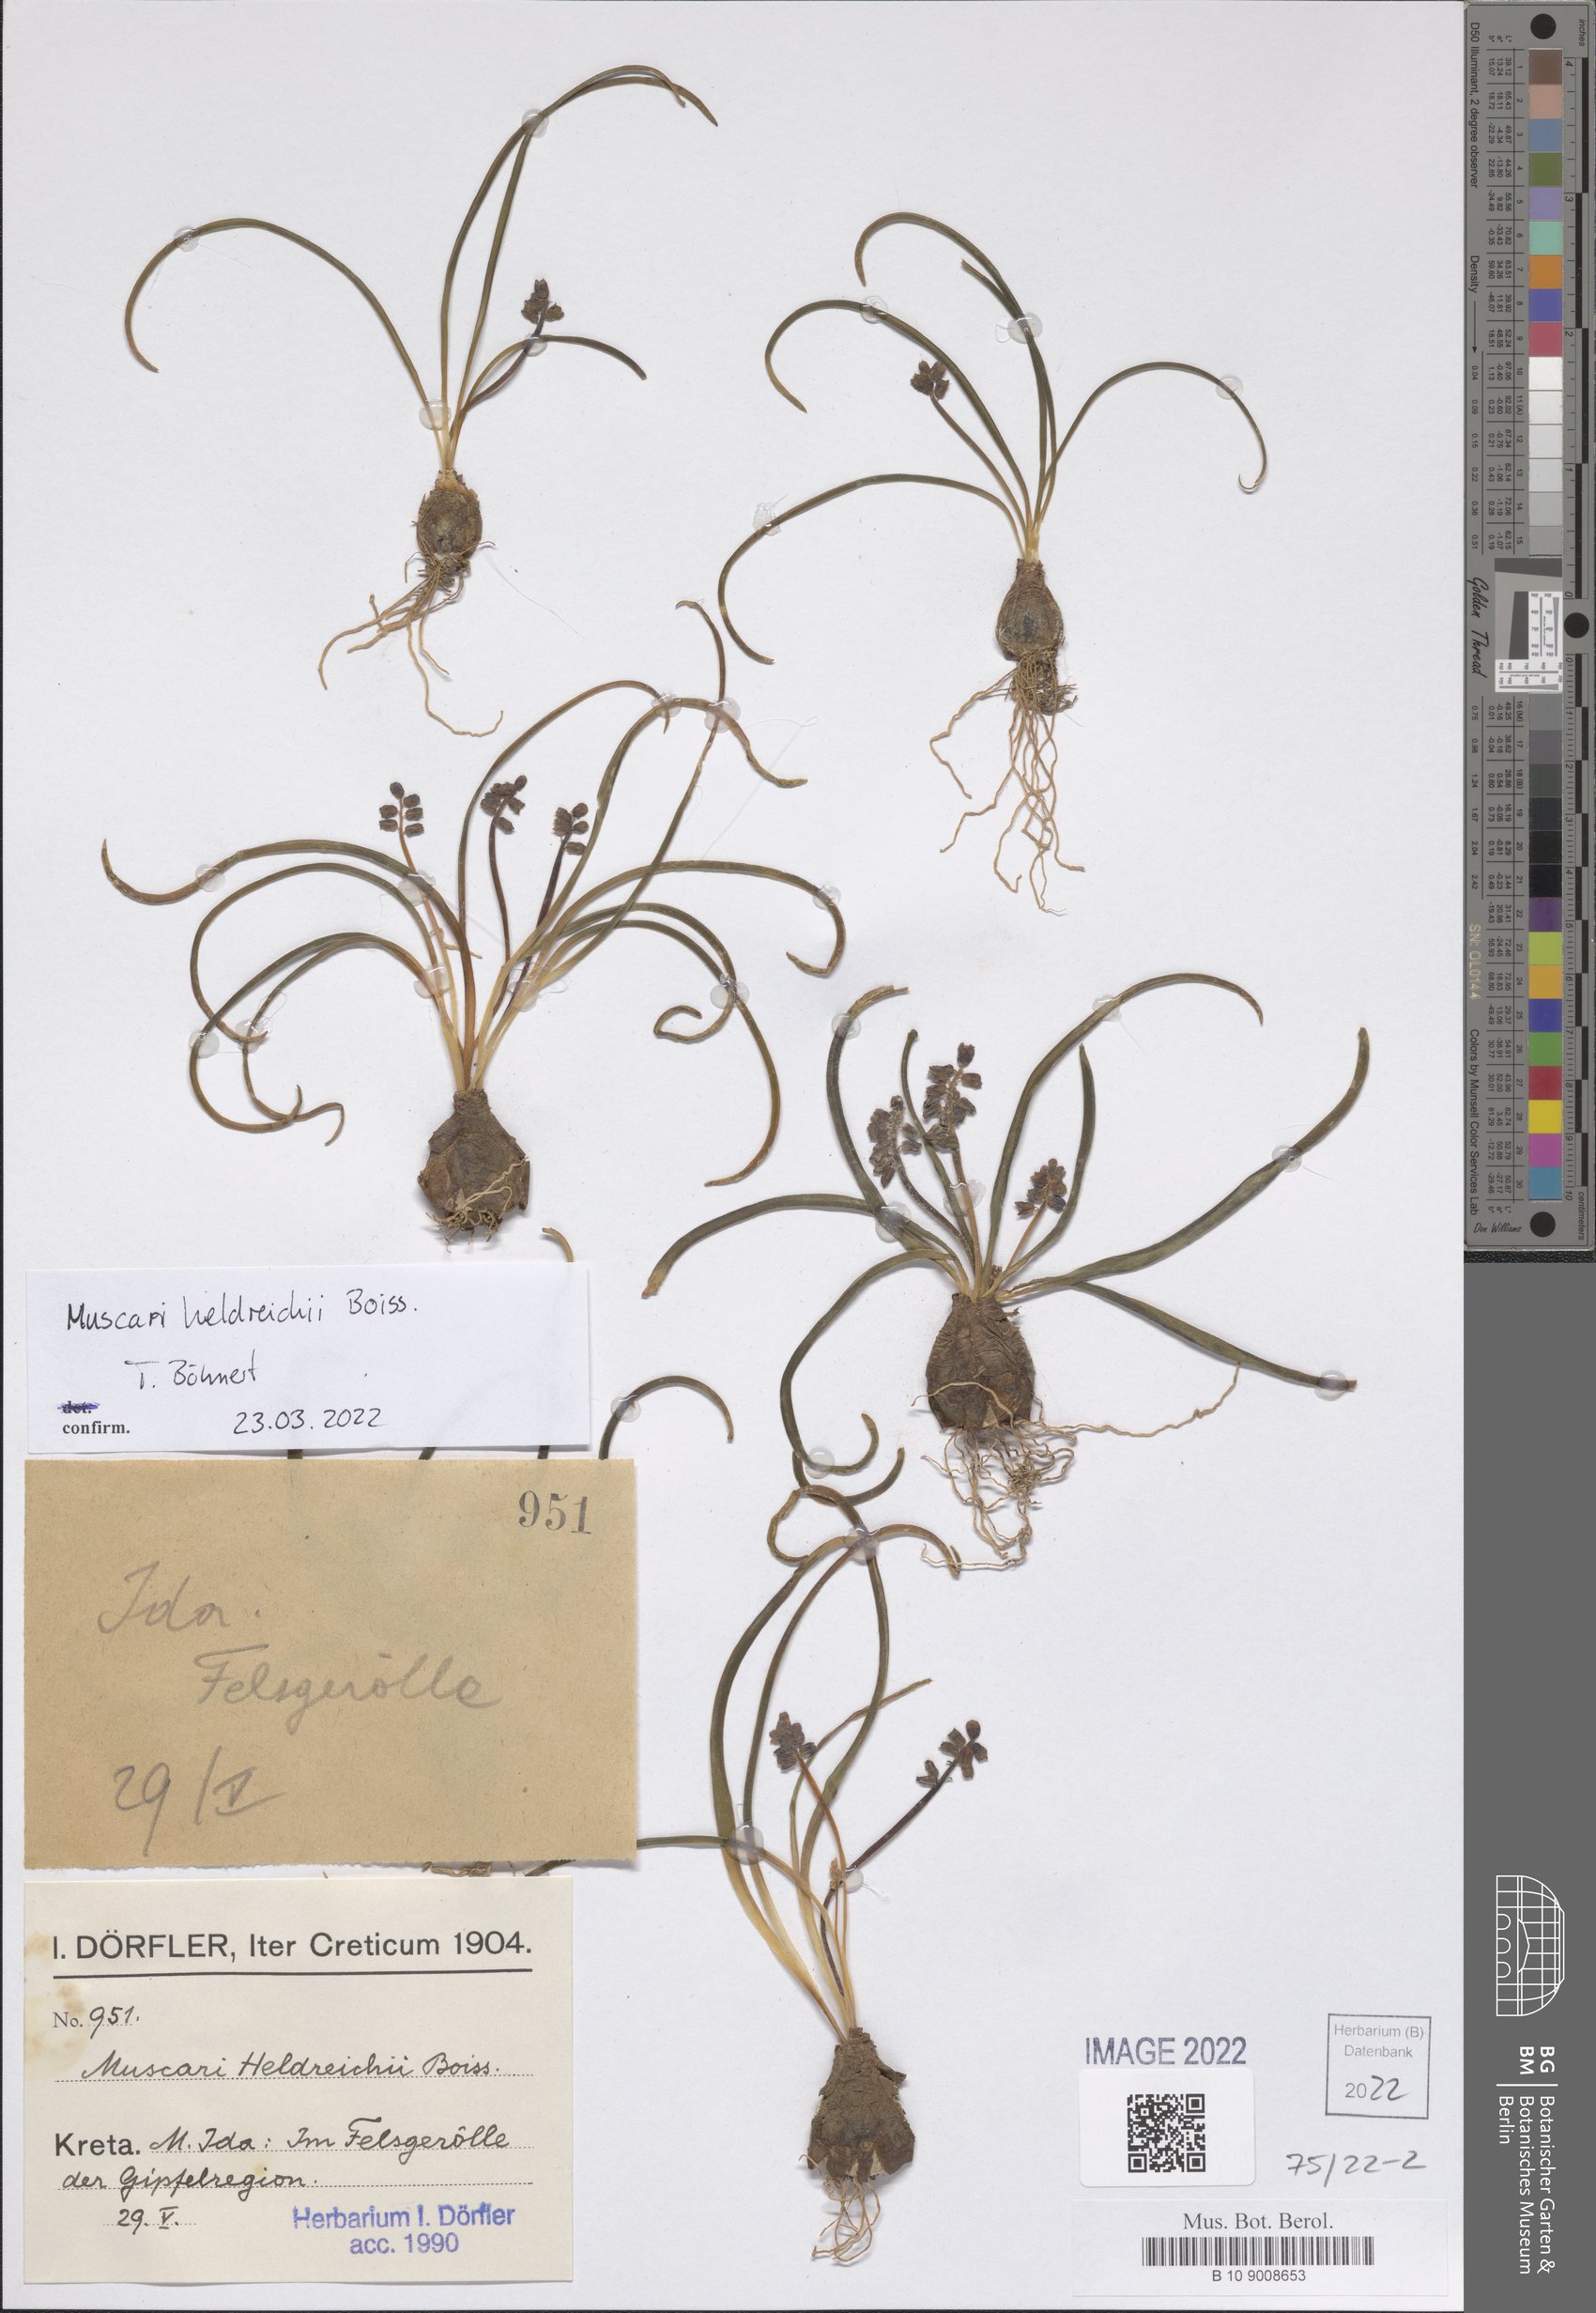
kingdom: Plantae
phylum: Tracheophyta
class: Liliopsida
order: Asparagales
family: Asparagaceae
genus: Muscari
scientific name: Muscari heldreichii
